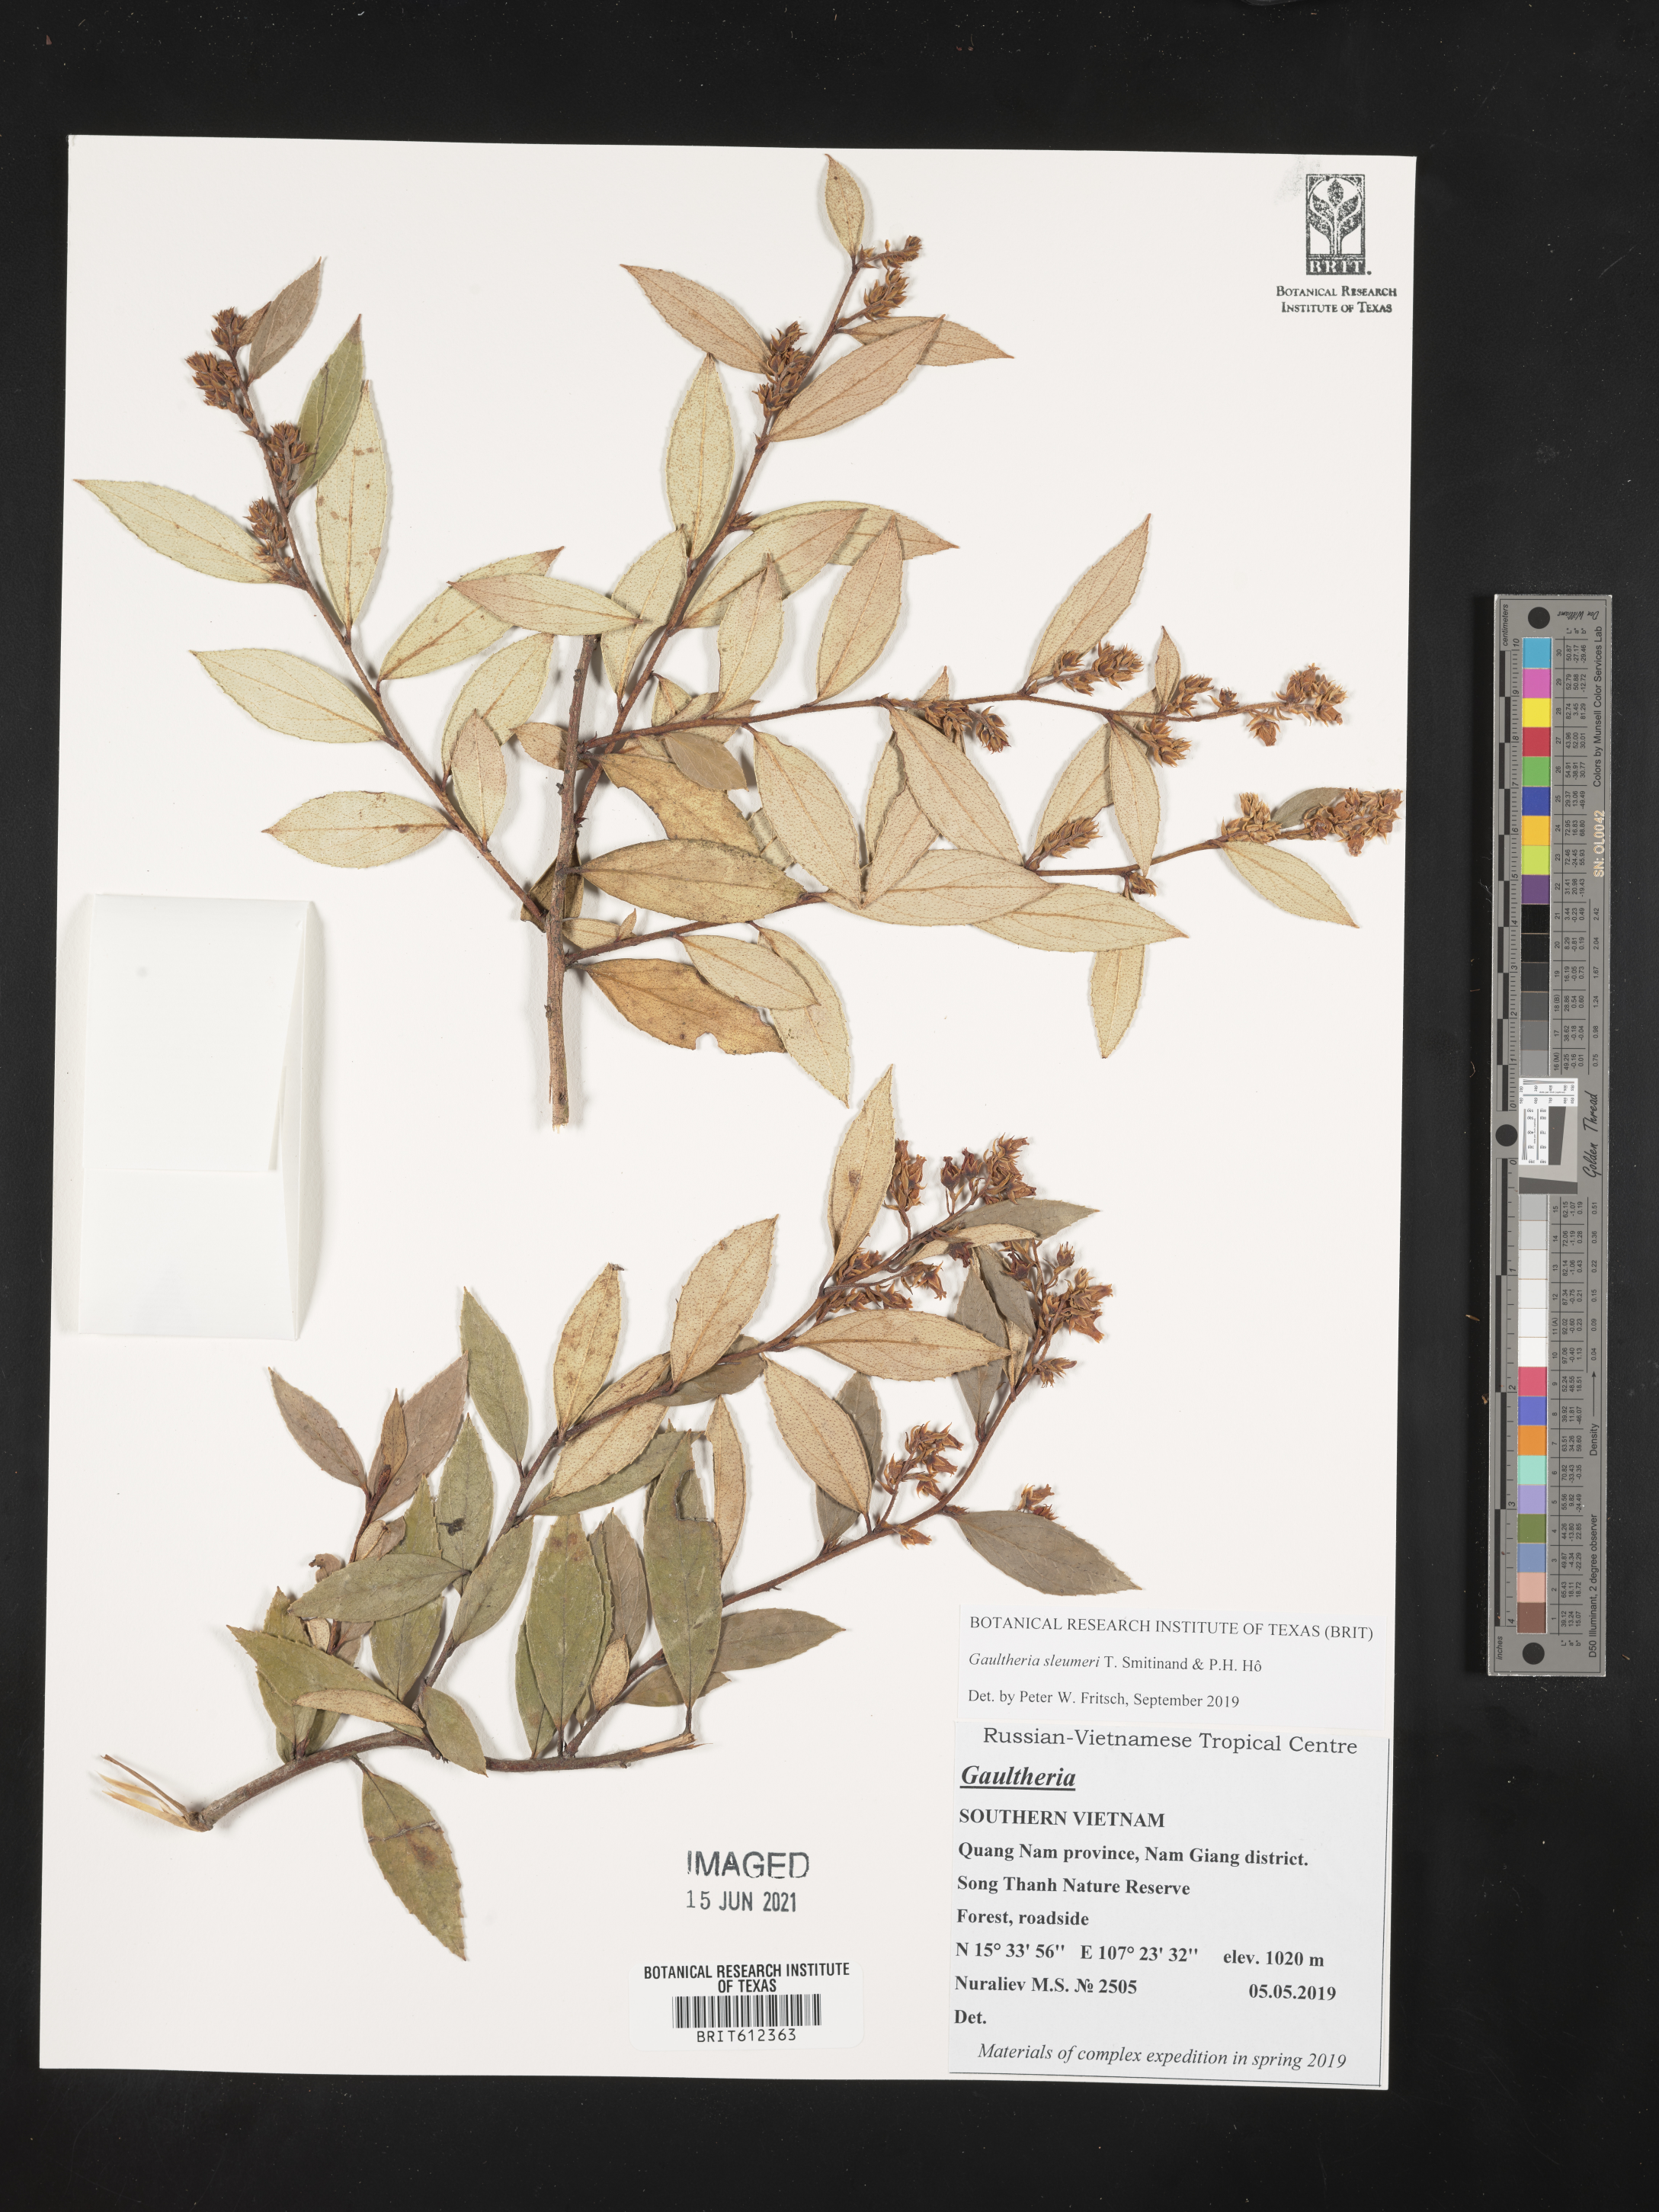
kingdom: Plantae
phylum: Tracheophyta
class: Magnoliopsida
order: Ericales
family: Ericaceae
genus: Gaultheria
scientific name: Gaultheria sleumeri
